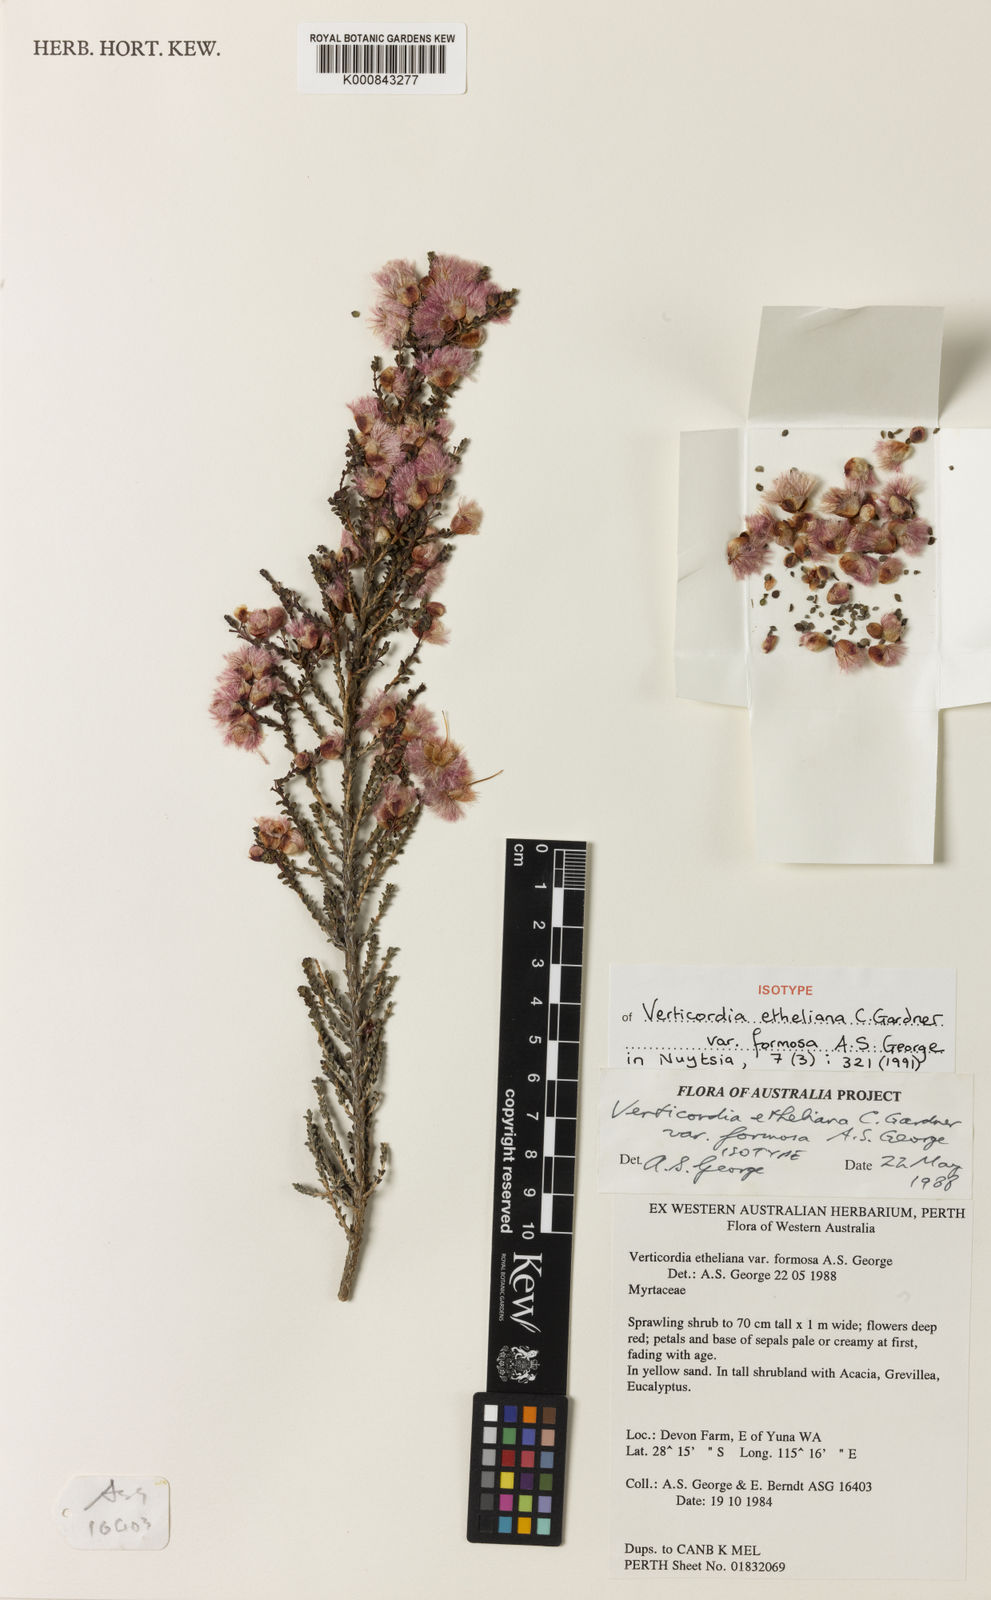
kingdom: Plantae
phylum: Tracheophyta
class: Magnoliopsida
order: Myrtales
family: Myrtaceae
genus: Verticordia
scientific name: Verticordia etheliana
